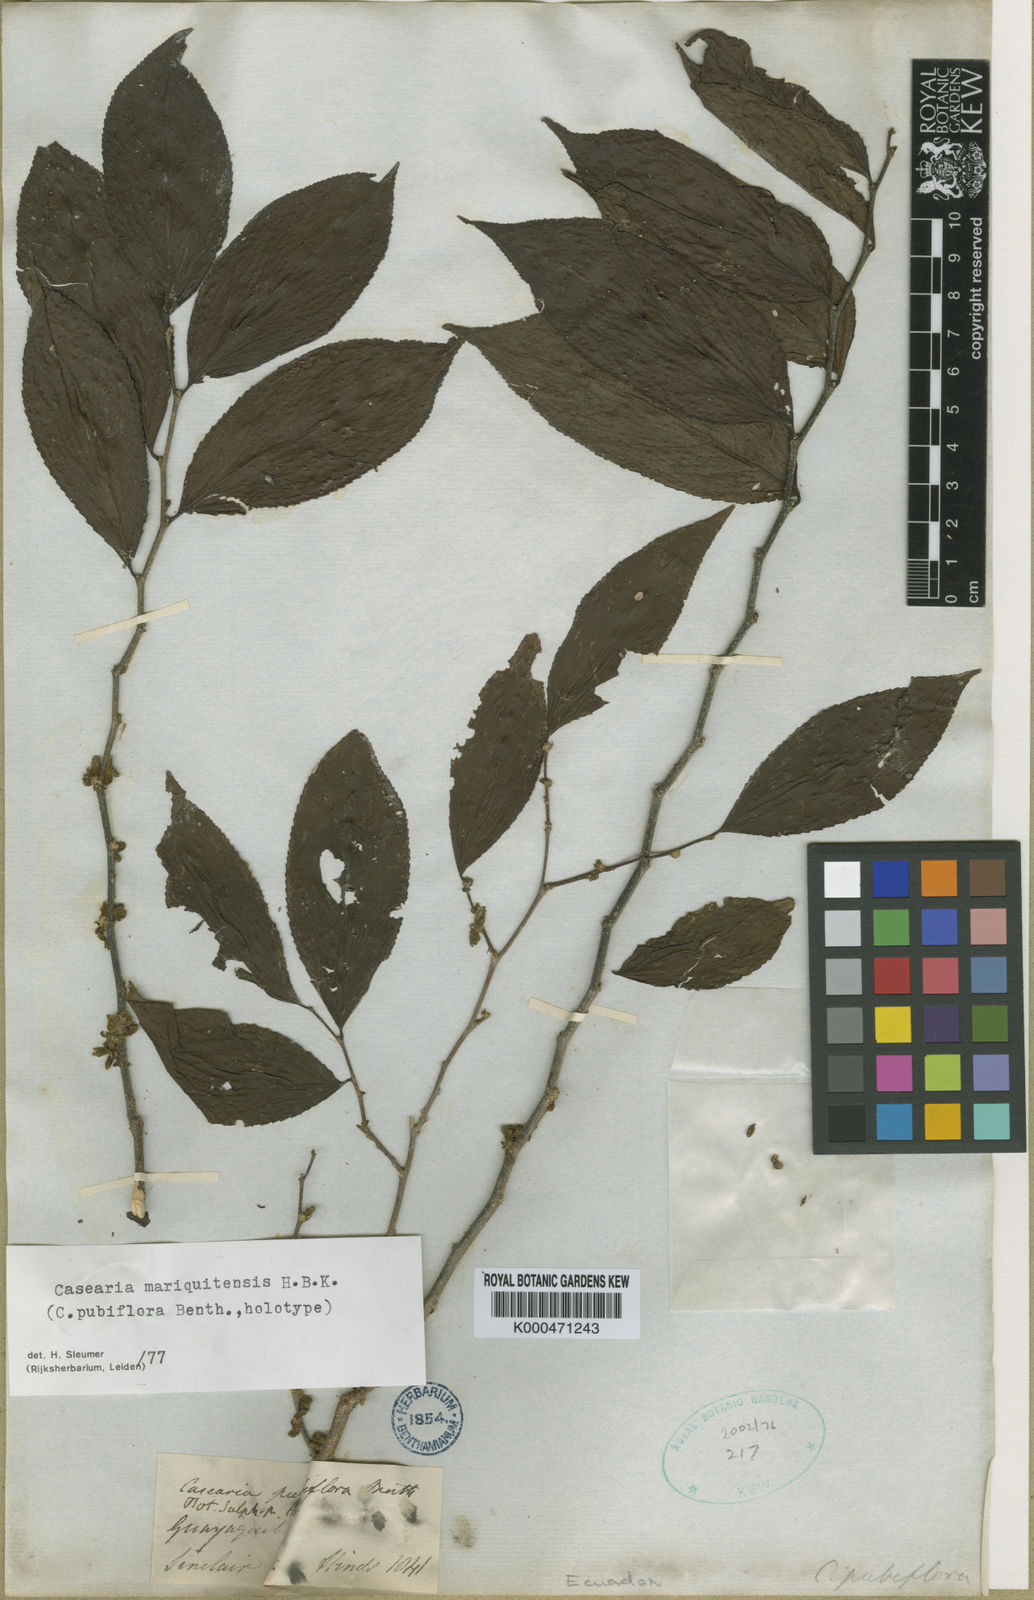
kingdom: Plantae
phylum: Tracheophyta
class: Magnoliopsida
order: Malpighiales
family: Salicaceae
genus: Casearia
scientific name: Casearia mariquitensis
